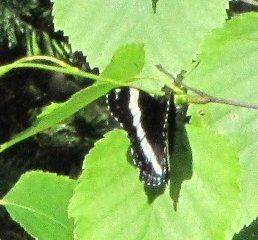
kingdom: Animalia
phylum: Arthropoda
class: Insecta
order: Lepidoptera
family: Nymphalidae
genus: Limenitis
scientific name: Limenitis arthemis
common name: Red-spotted Admiral
